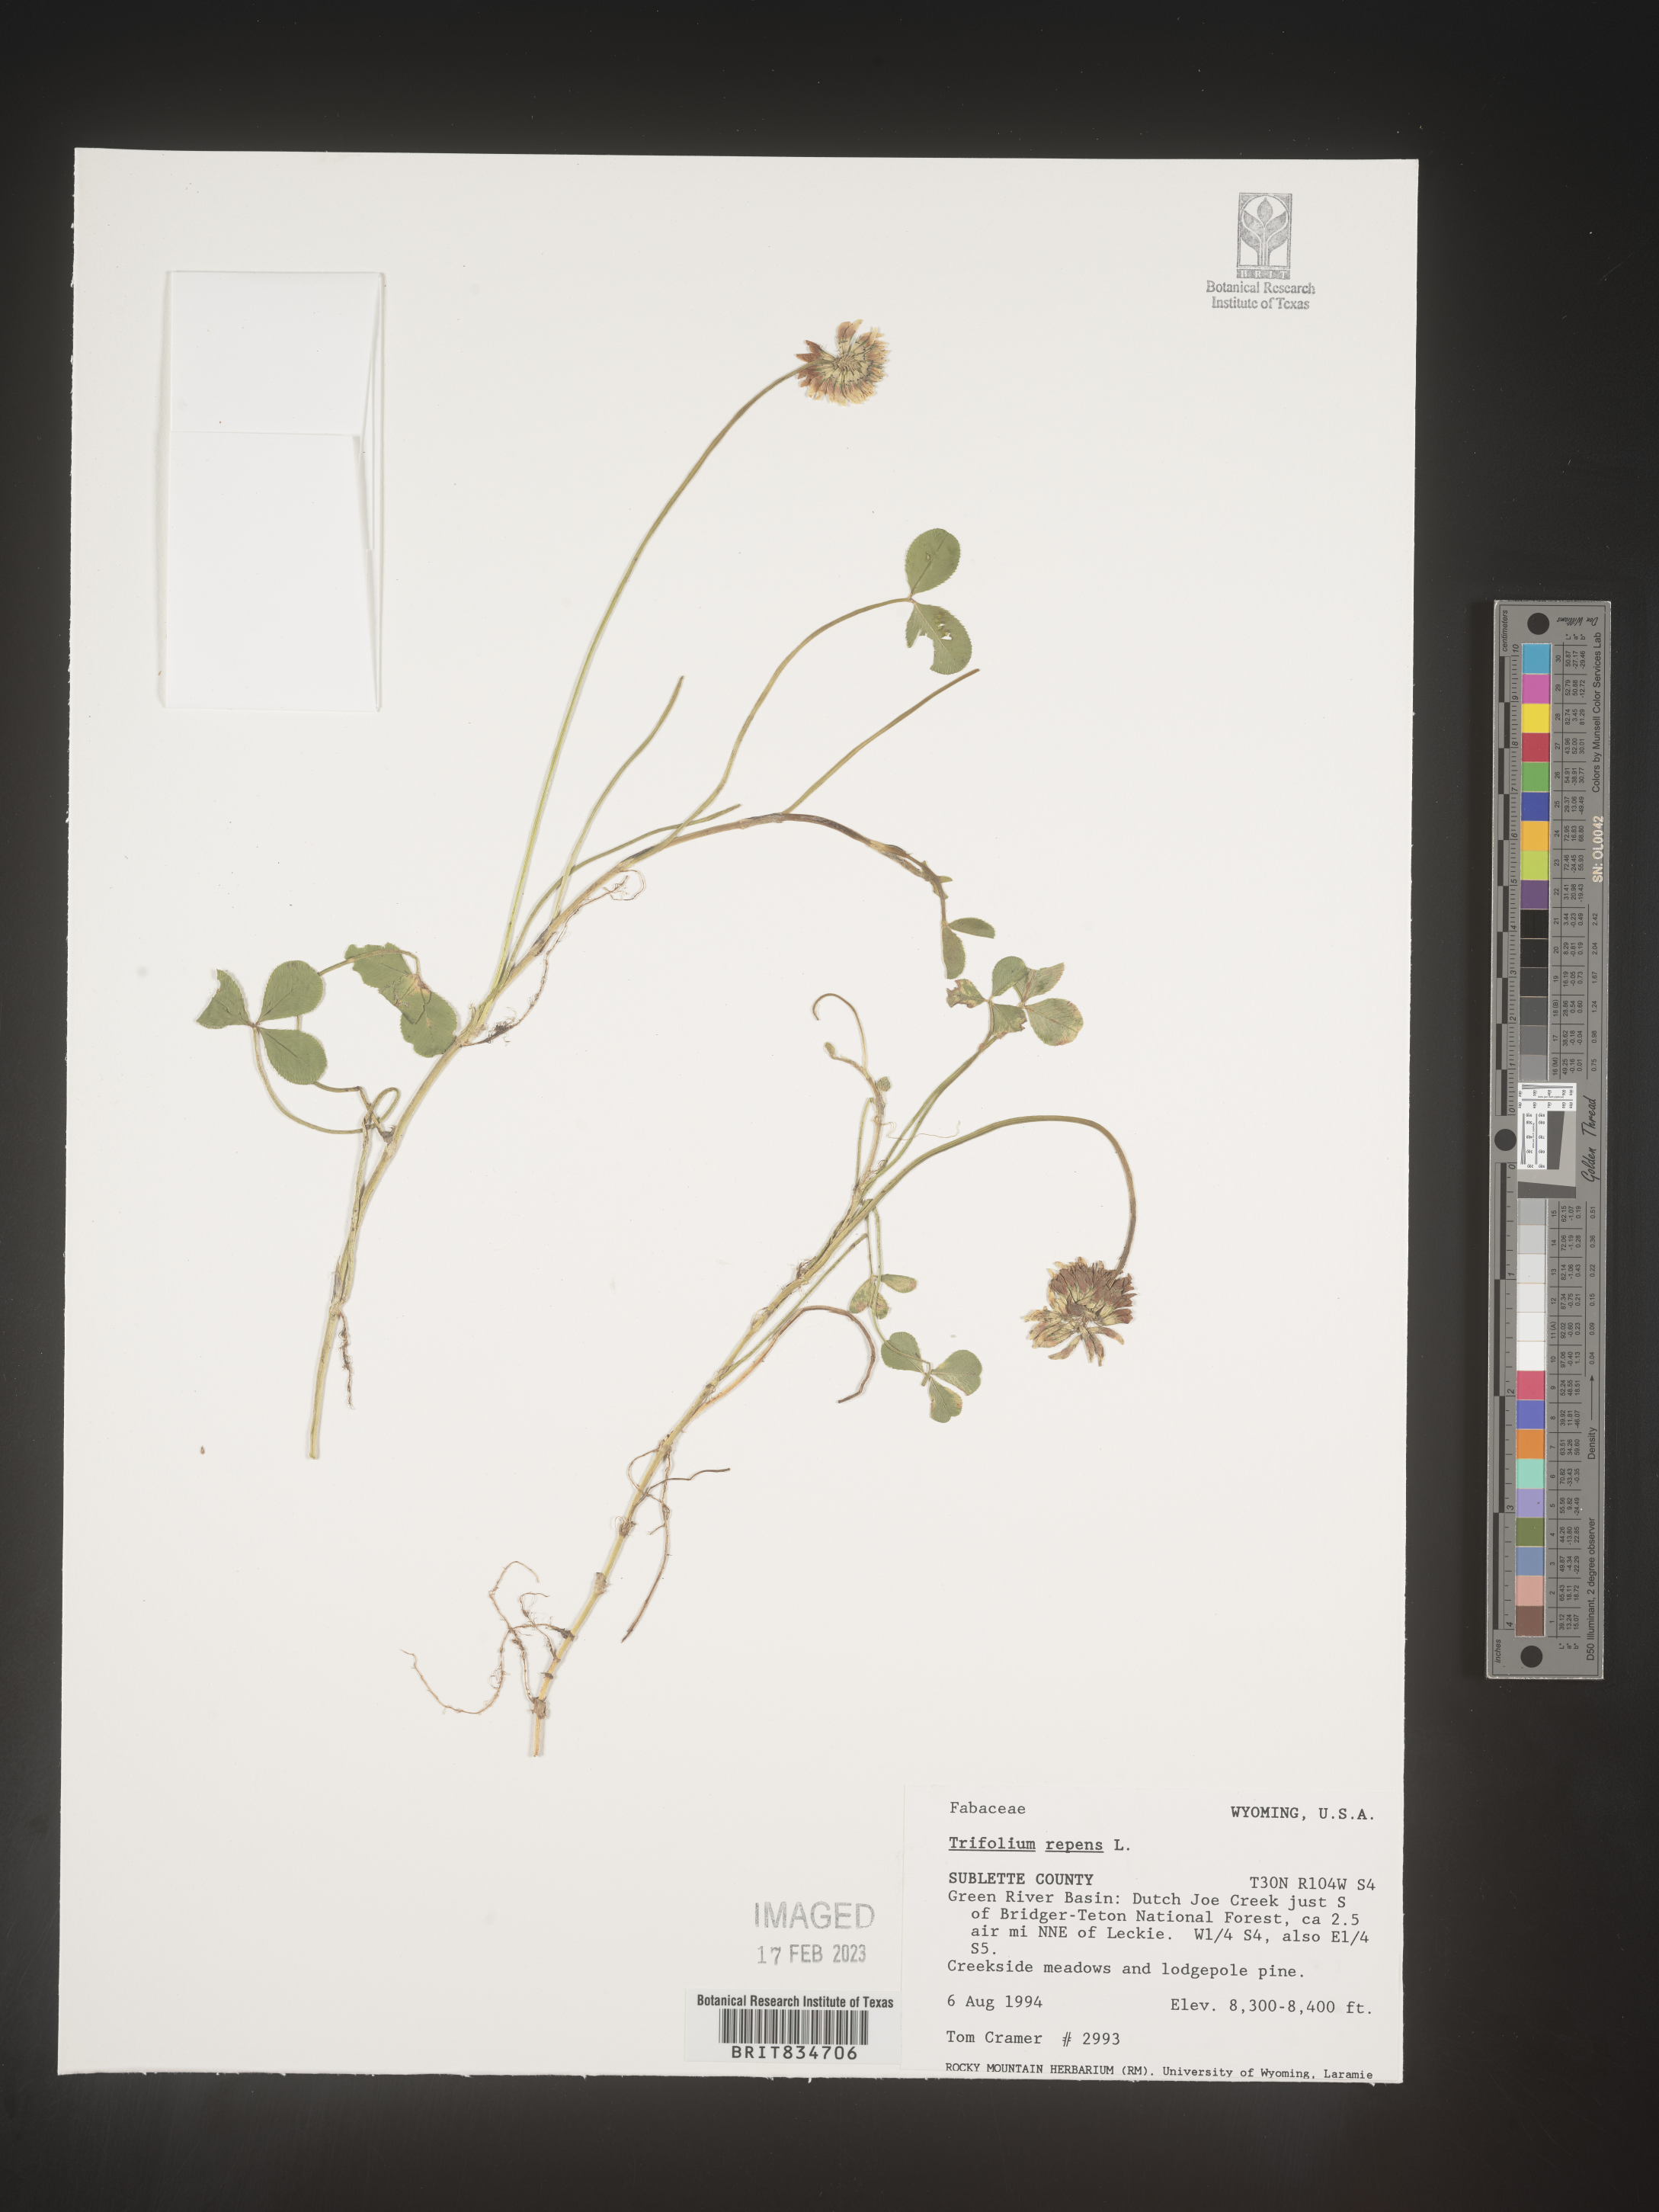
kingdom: Plantae
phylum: Tracheophyta
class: Magnoliopsida
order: Fabales
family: Fabaceae
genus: Trifolium
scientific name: Trifolium repens
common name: White clover
